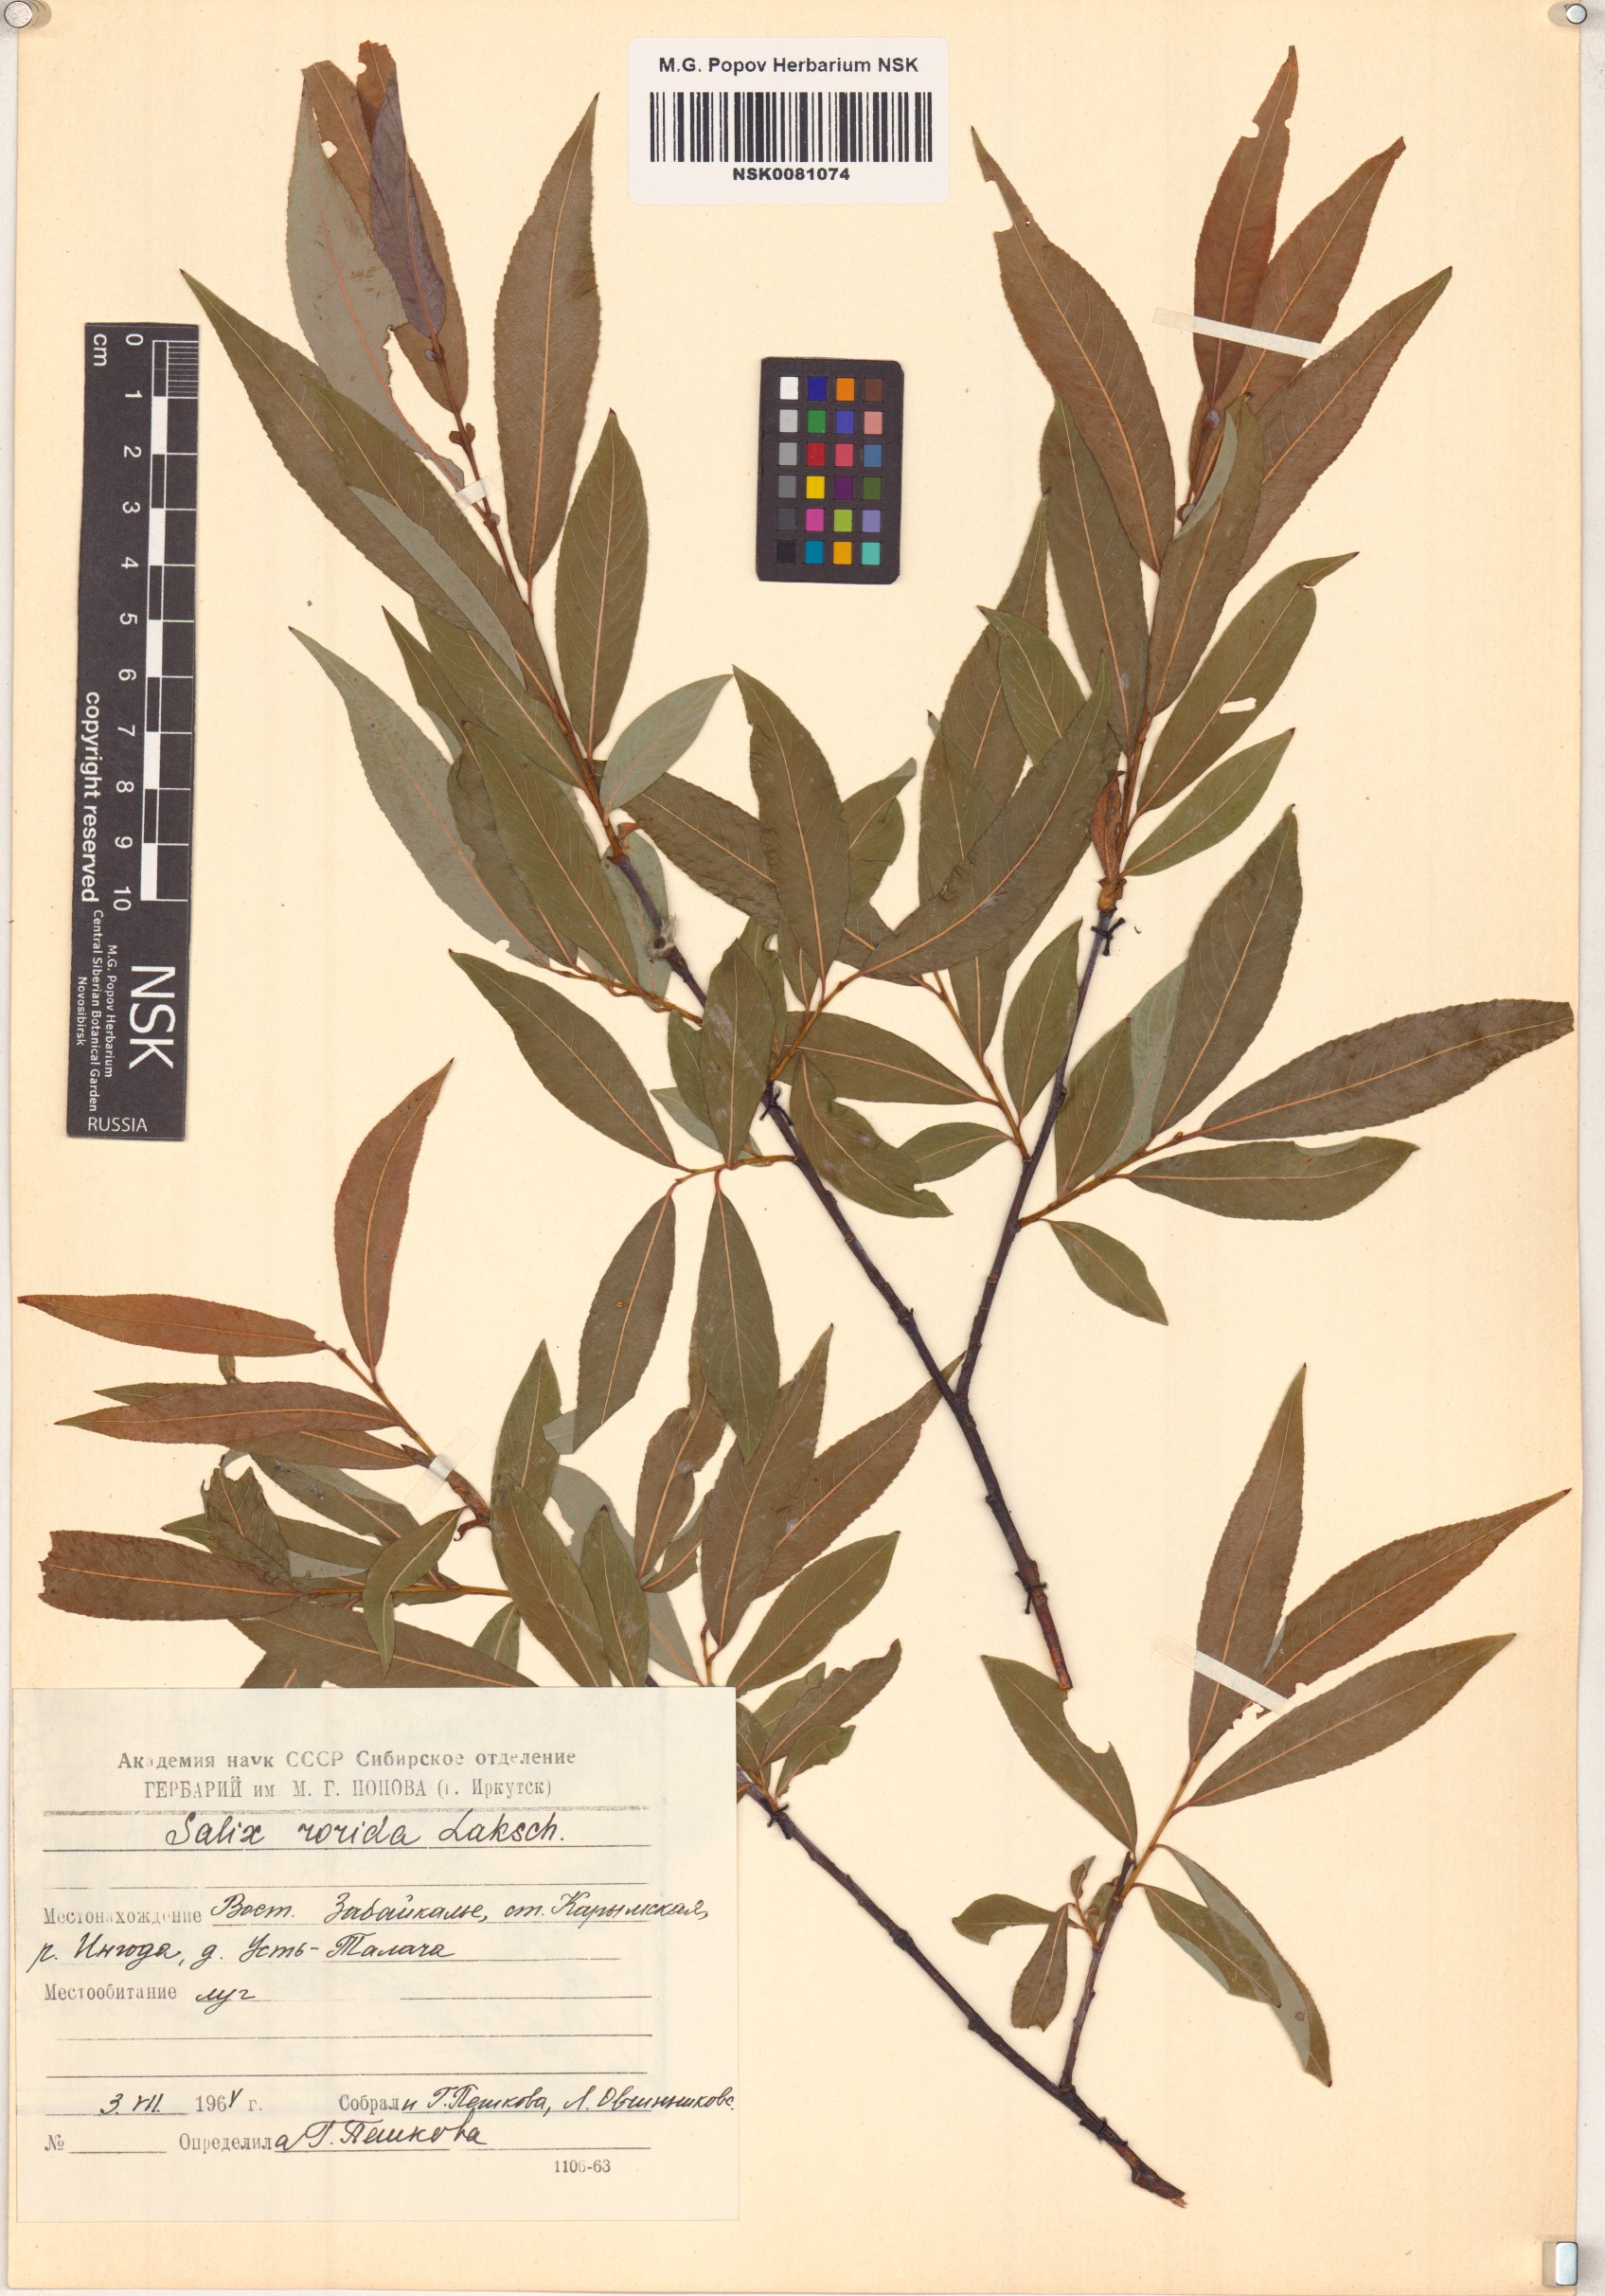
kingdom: Plantae
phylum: Tracheophyta
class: Magnoliopsida
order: Malpighiales
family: Salicaceae
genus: Salix
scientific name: Salix rorida
